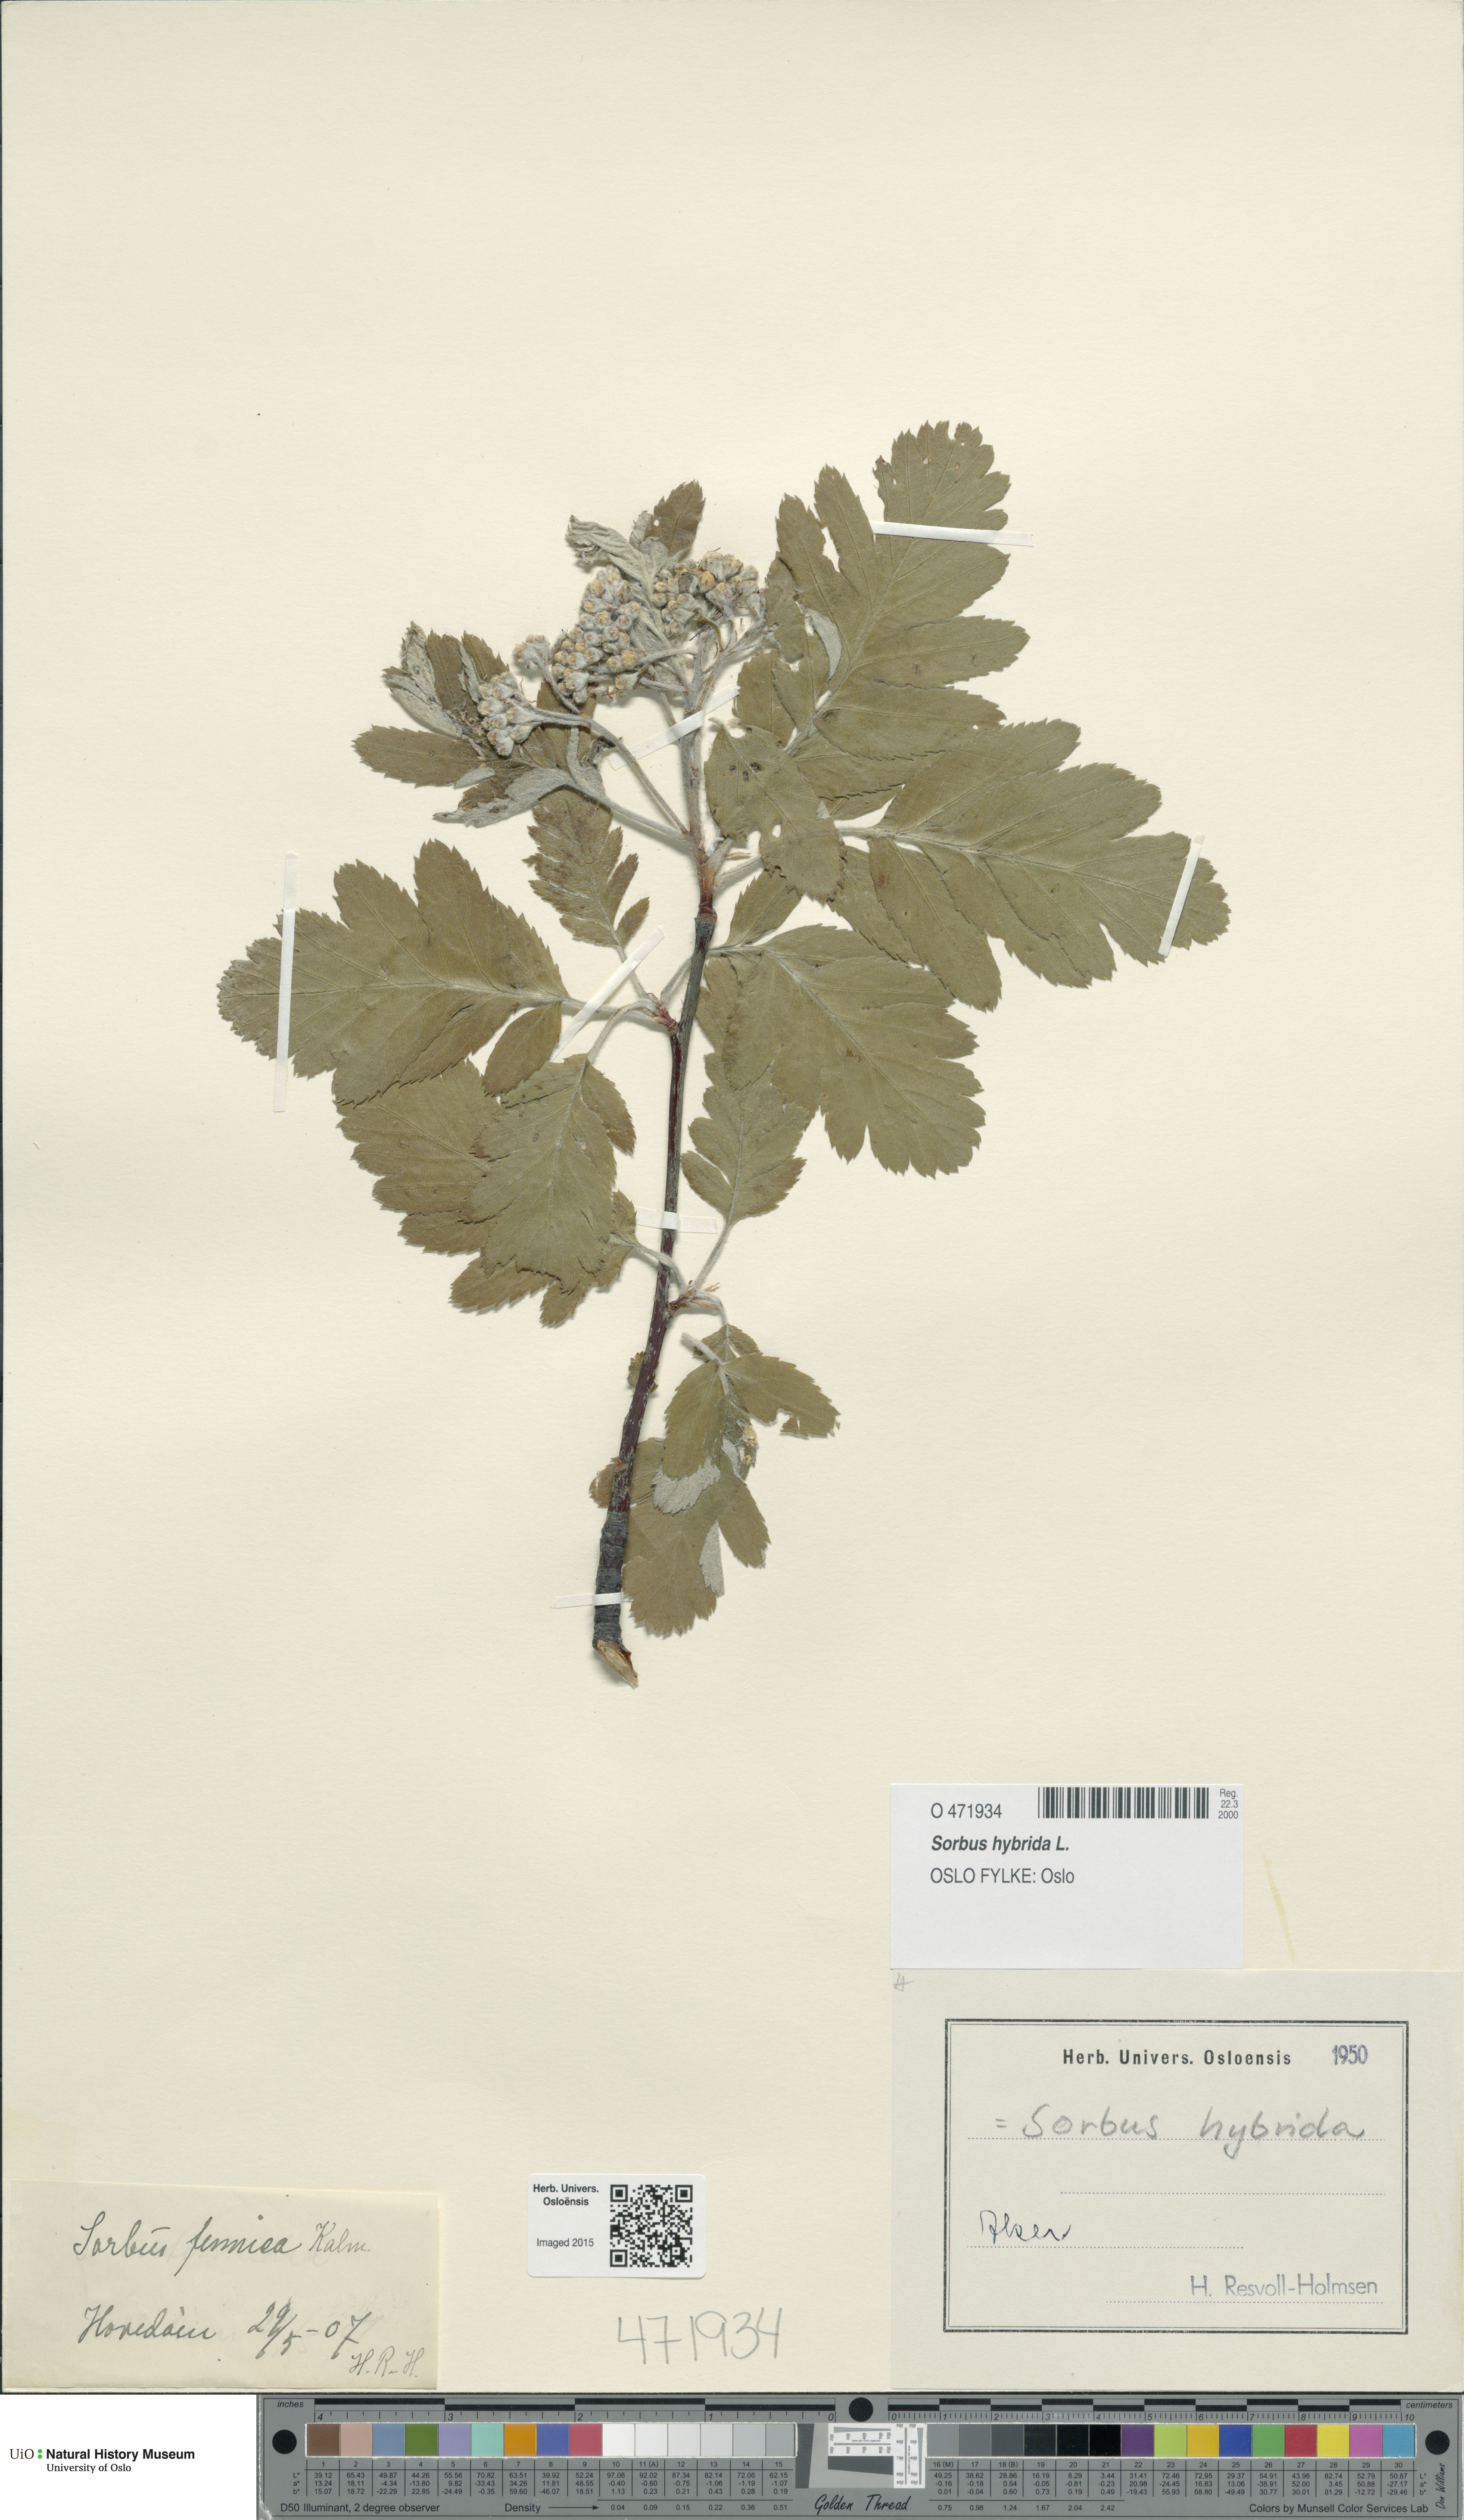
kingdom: Plantae
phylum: Tracheophyta
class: Magnoliopsida
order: Rosales
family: Rosaceae
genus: Hedlundia
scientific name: Hedlundia hybrida
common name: Swedish service-tree
